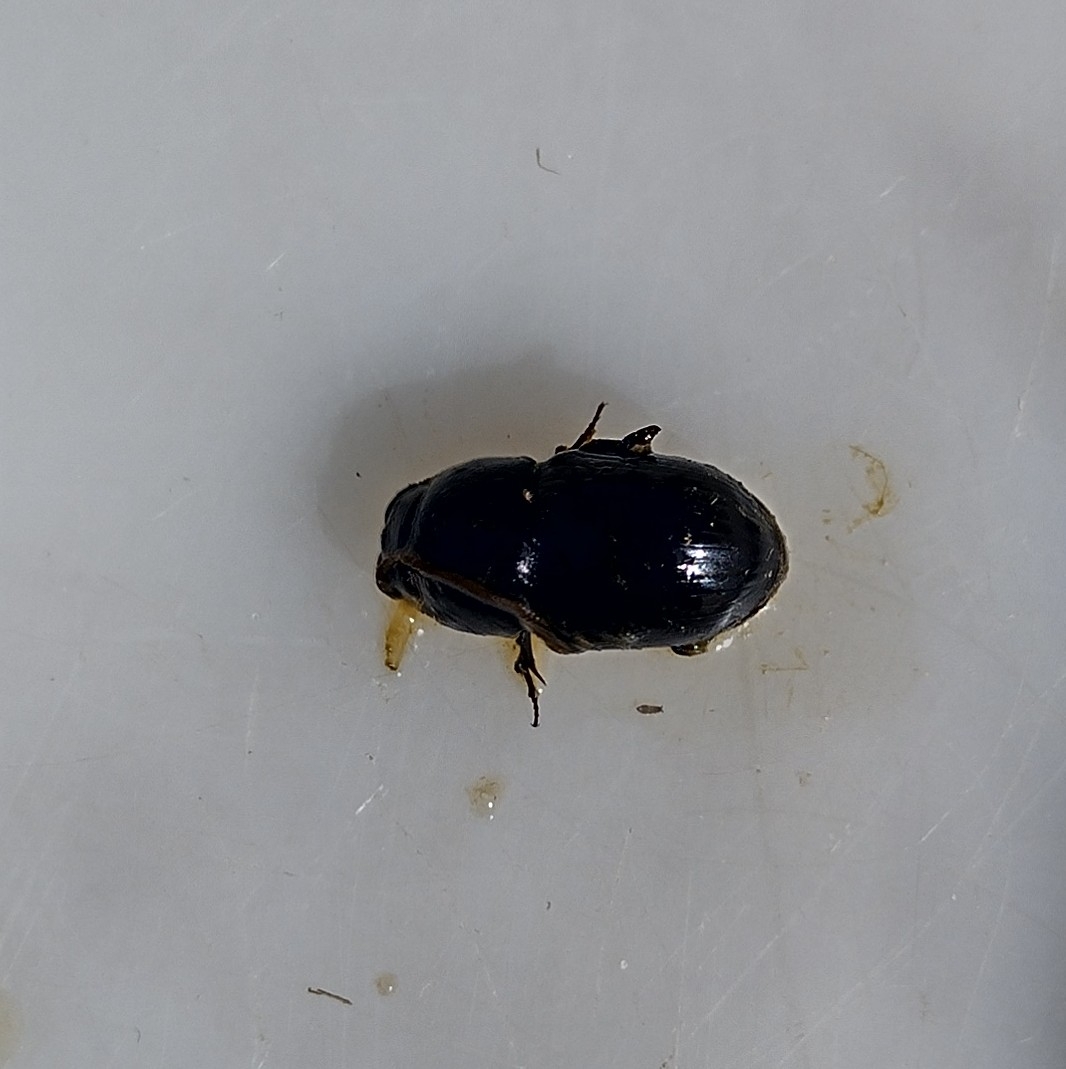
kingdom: Animalia
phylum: Arthropoda
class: Insecta
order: Coleoptera
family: Scarabaeidae
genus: Teuchestes
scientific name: Teuchestes fossor
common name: Stor møgbille
